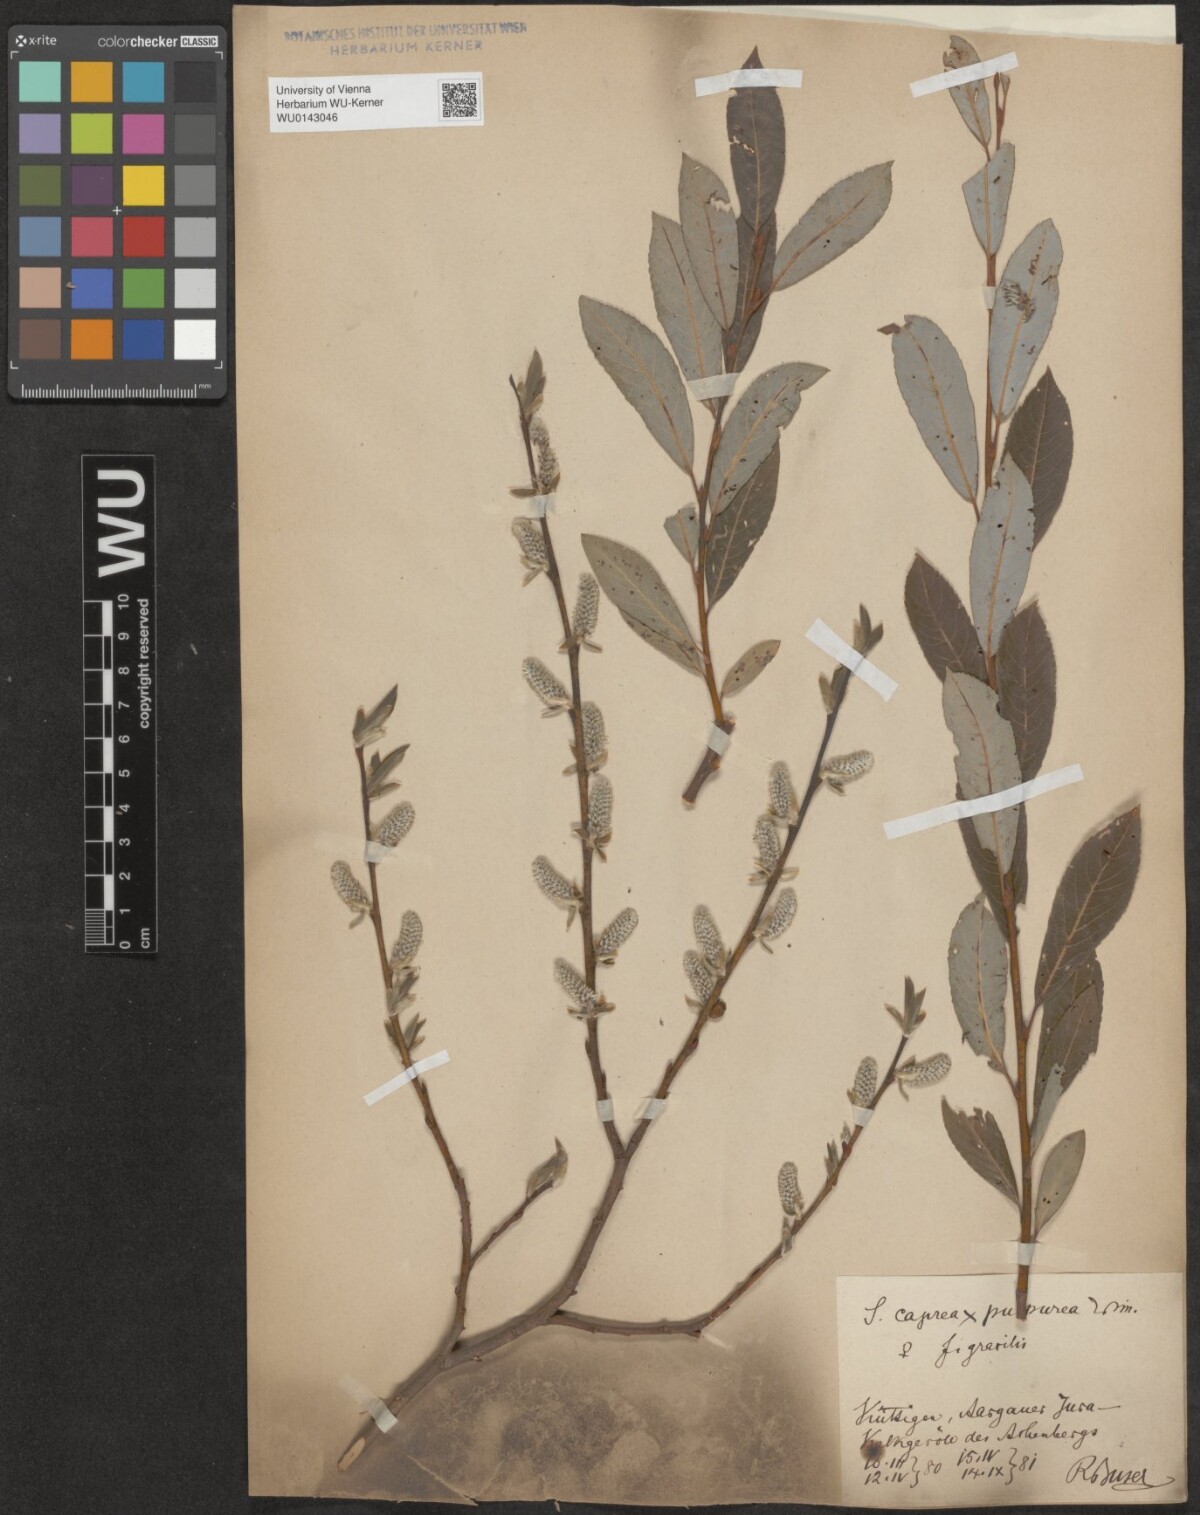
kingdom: Plantae
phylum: Tracheophyta
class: Magnoliopsida
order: Malpighiales
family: Salicaceae
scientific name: Salicaceae
